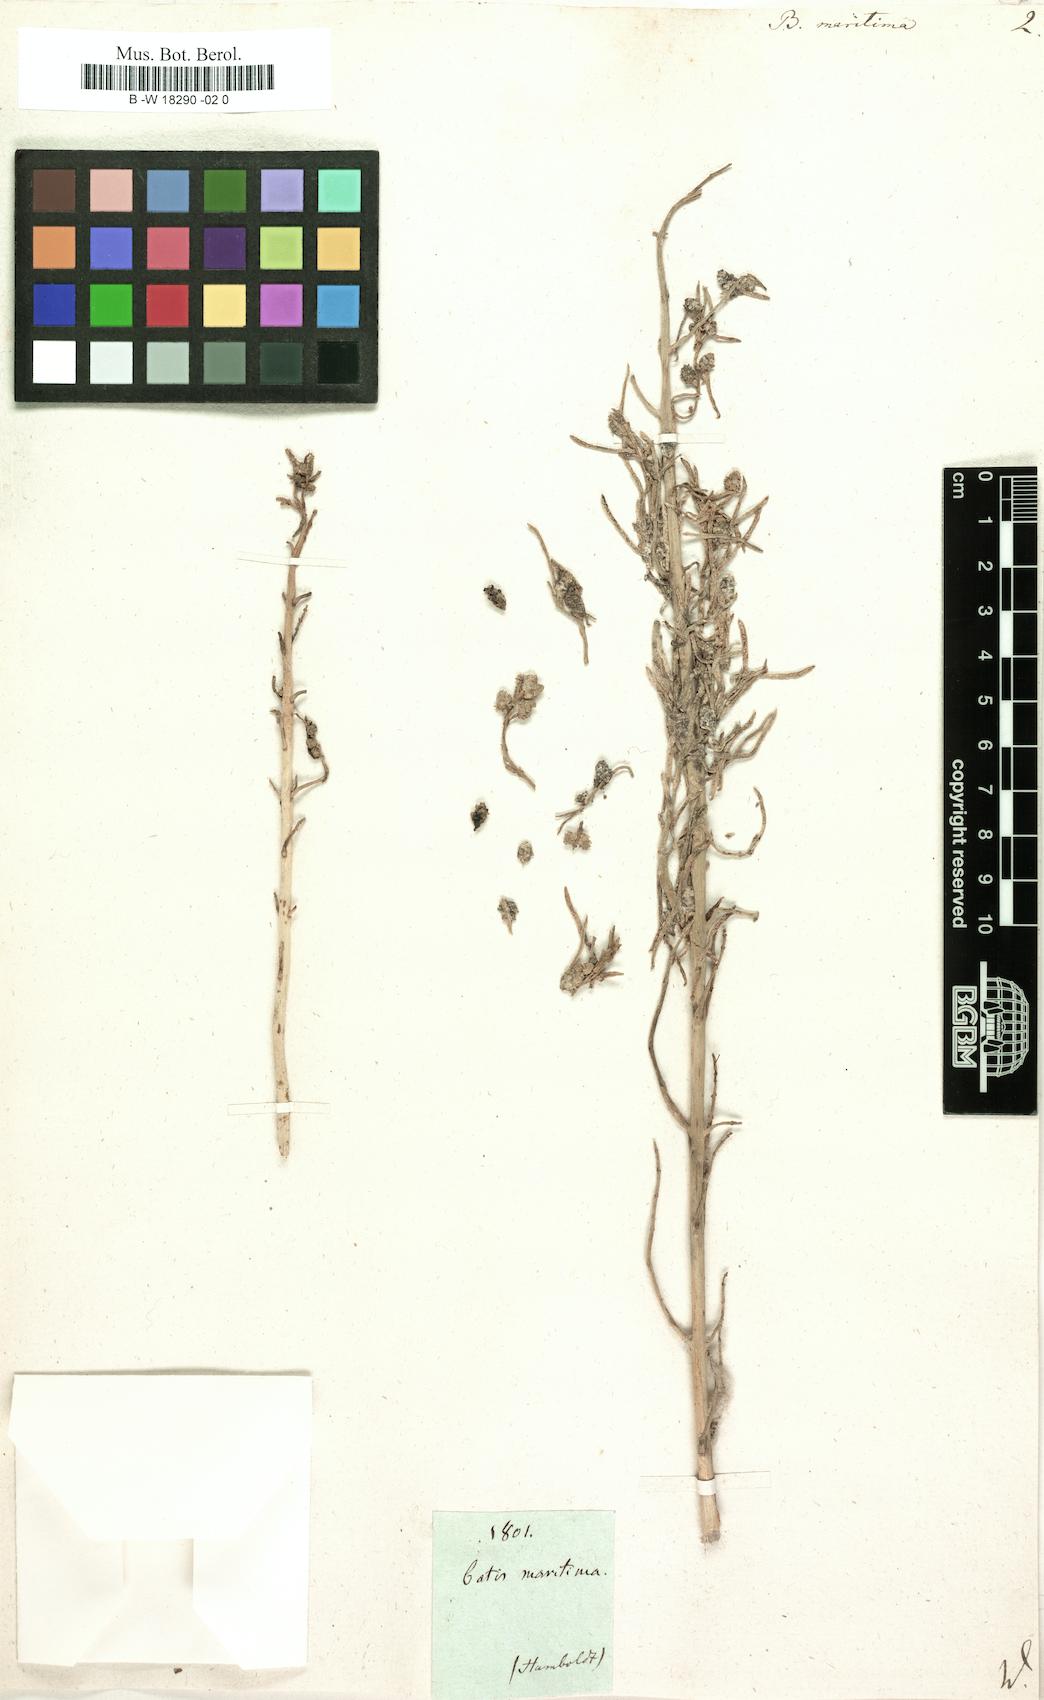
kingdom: Plantae
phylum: Tracheophyta
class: Magnoliopsida
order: Brassicales
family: Bataceae
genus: Batis
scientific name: Batis maritima
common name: Turtleweed
